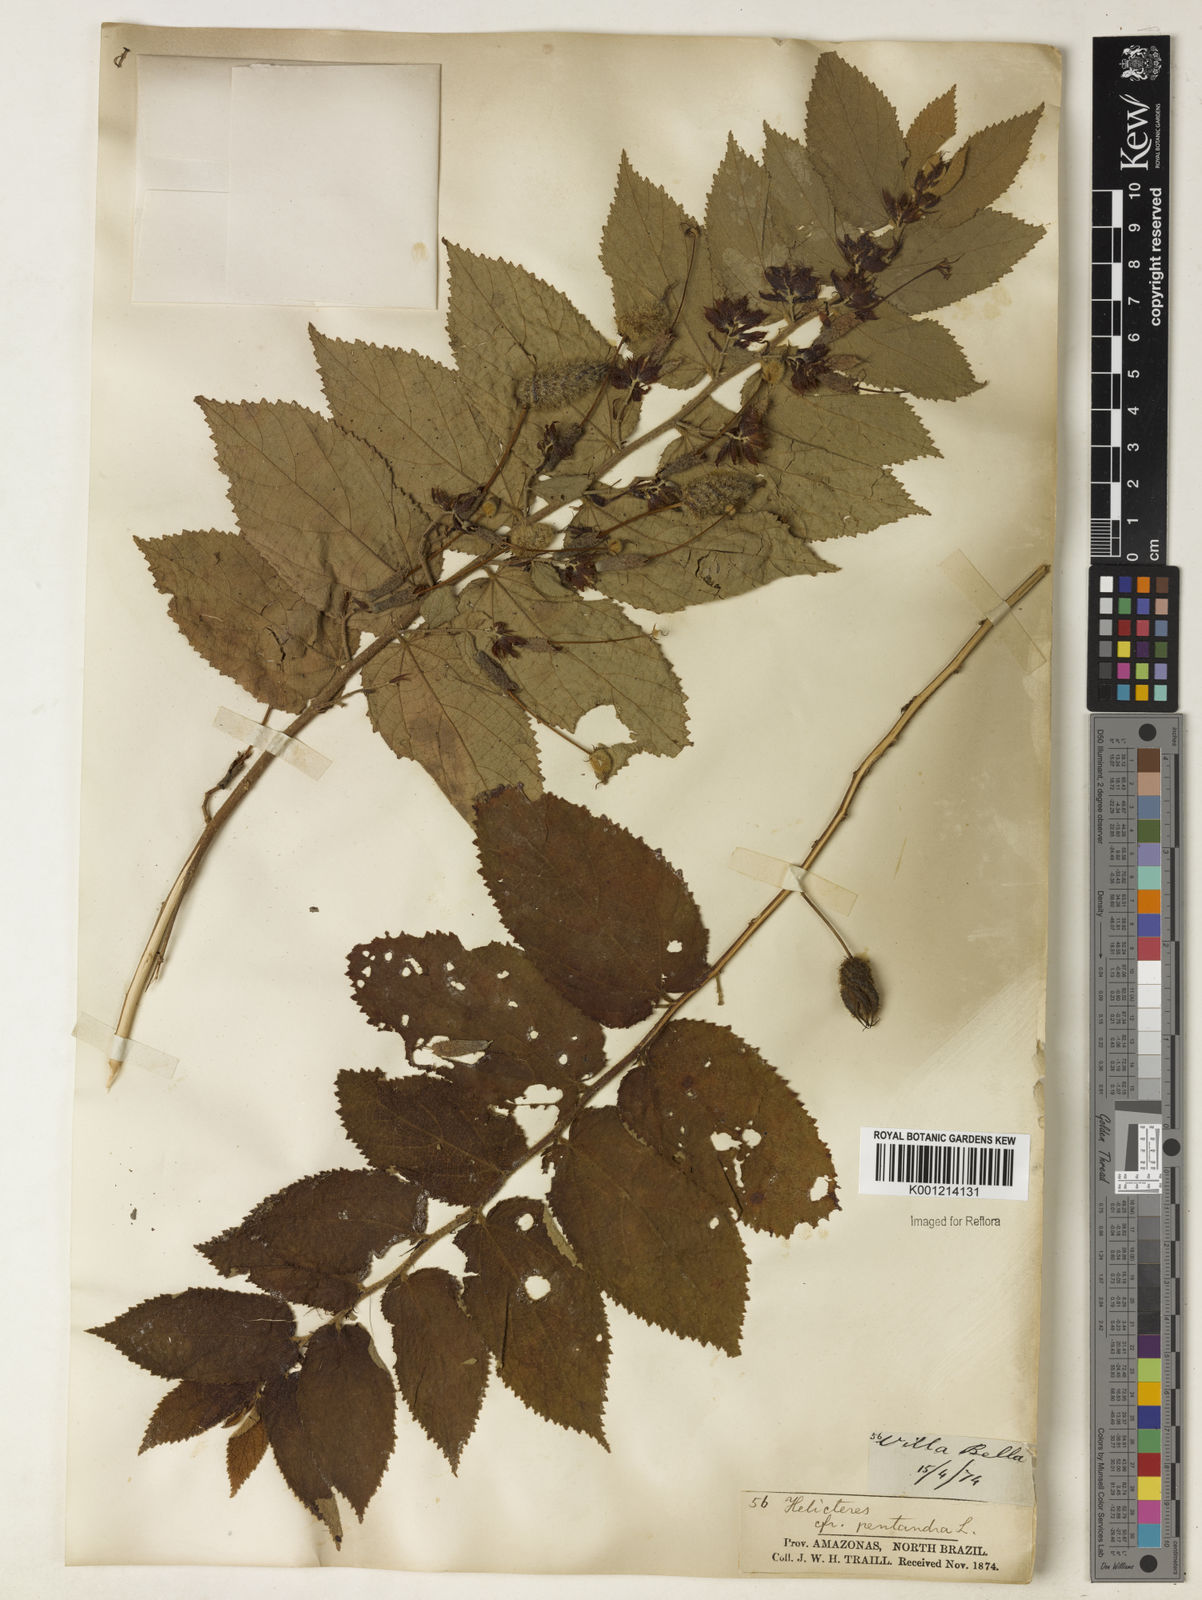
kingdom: Plantae
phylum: Tracheophyta
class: Magnoliopsida
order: Malvales
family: Malvaceae
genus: Helicteres
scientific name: Helicteres pentandra
